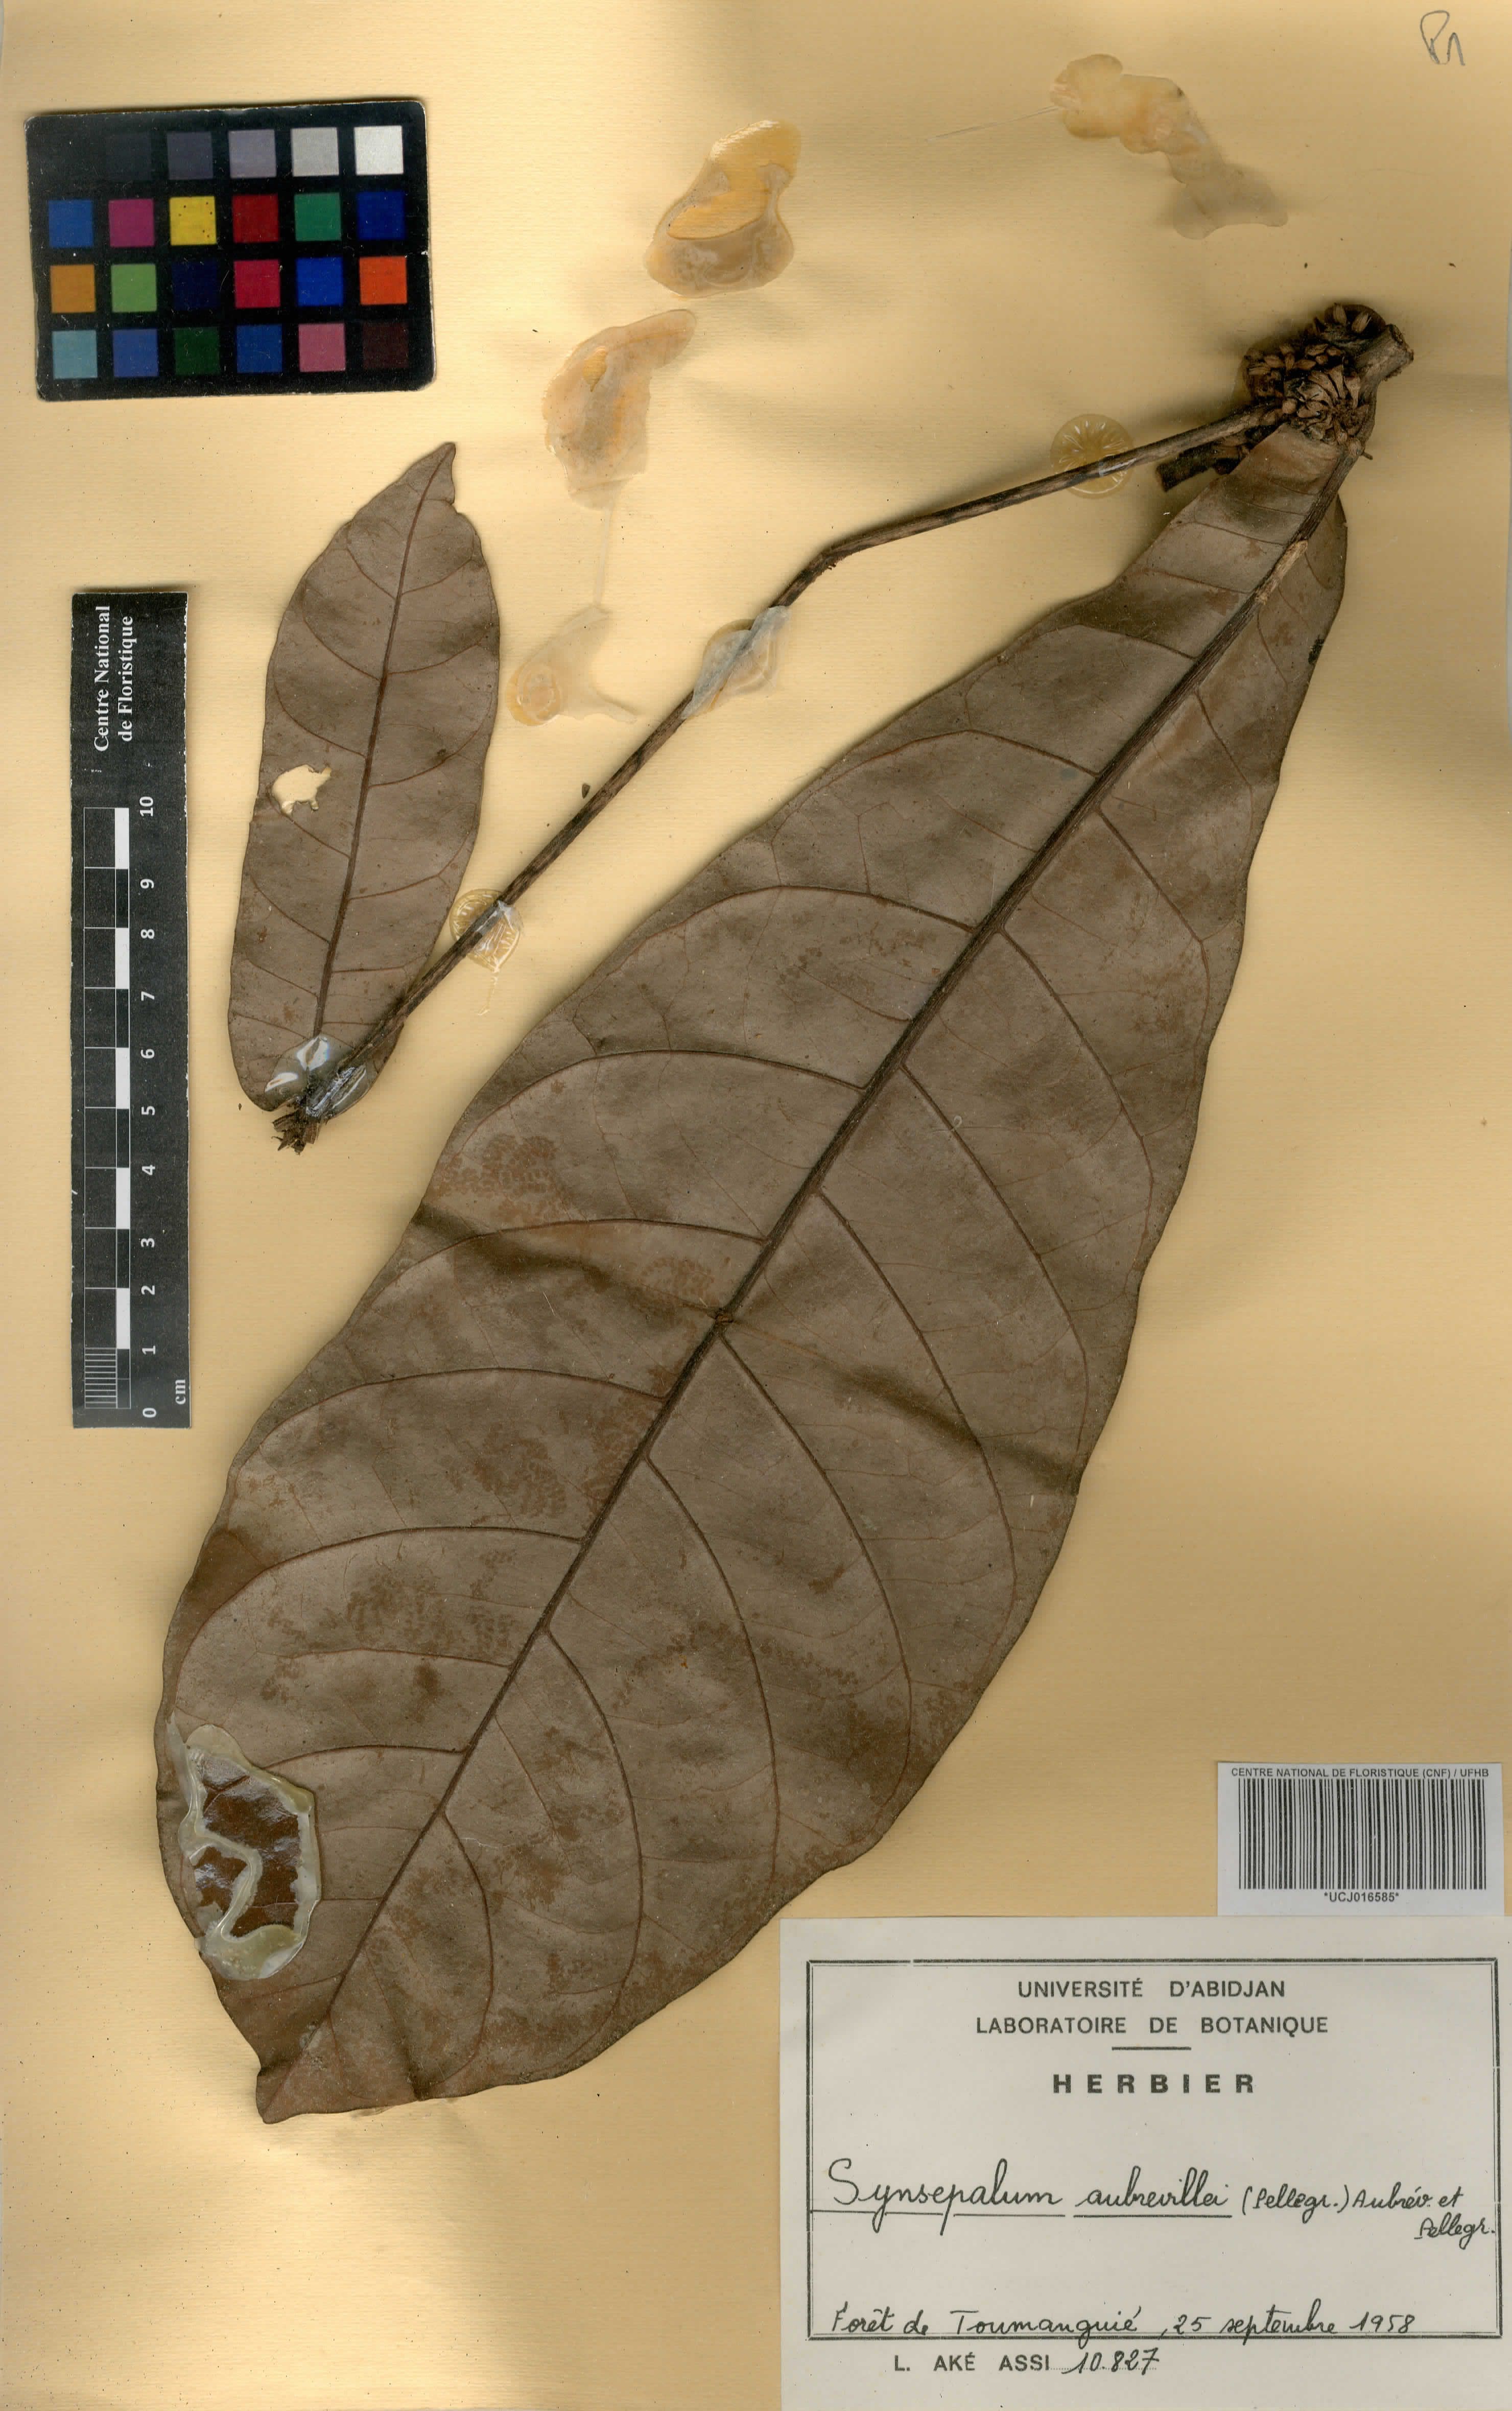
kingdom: Plantae
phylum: Tracheophyta
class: Magnoliopsida
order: Ericales
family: Sapotaceae
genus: Synsepalum
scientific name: Synsepalum aubrevillei
